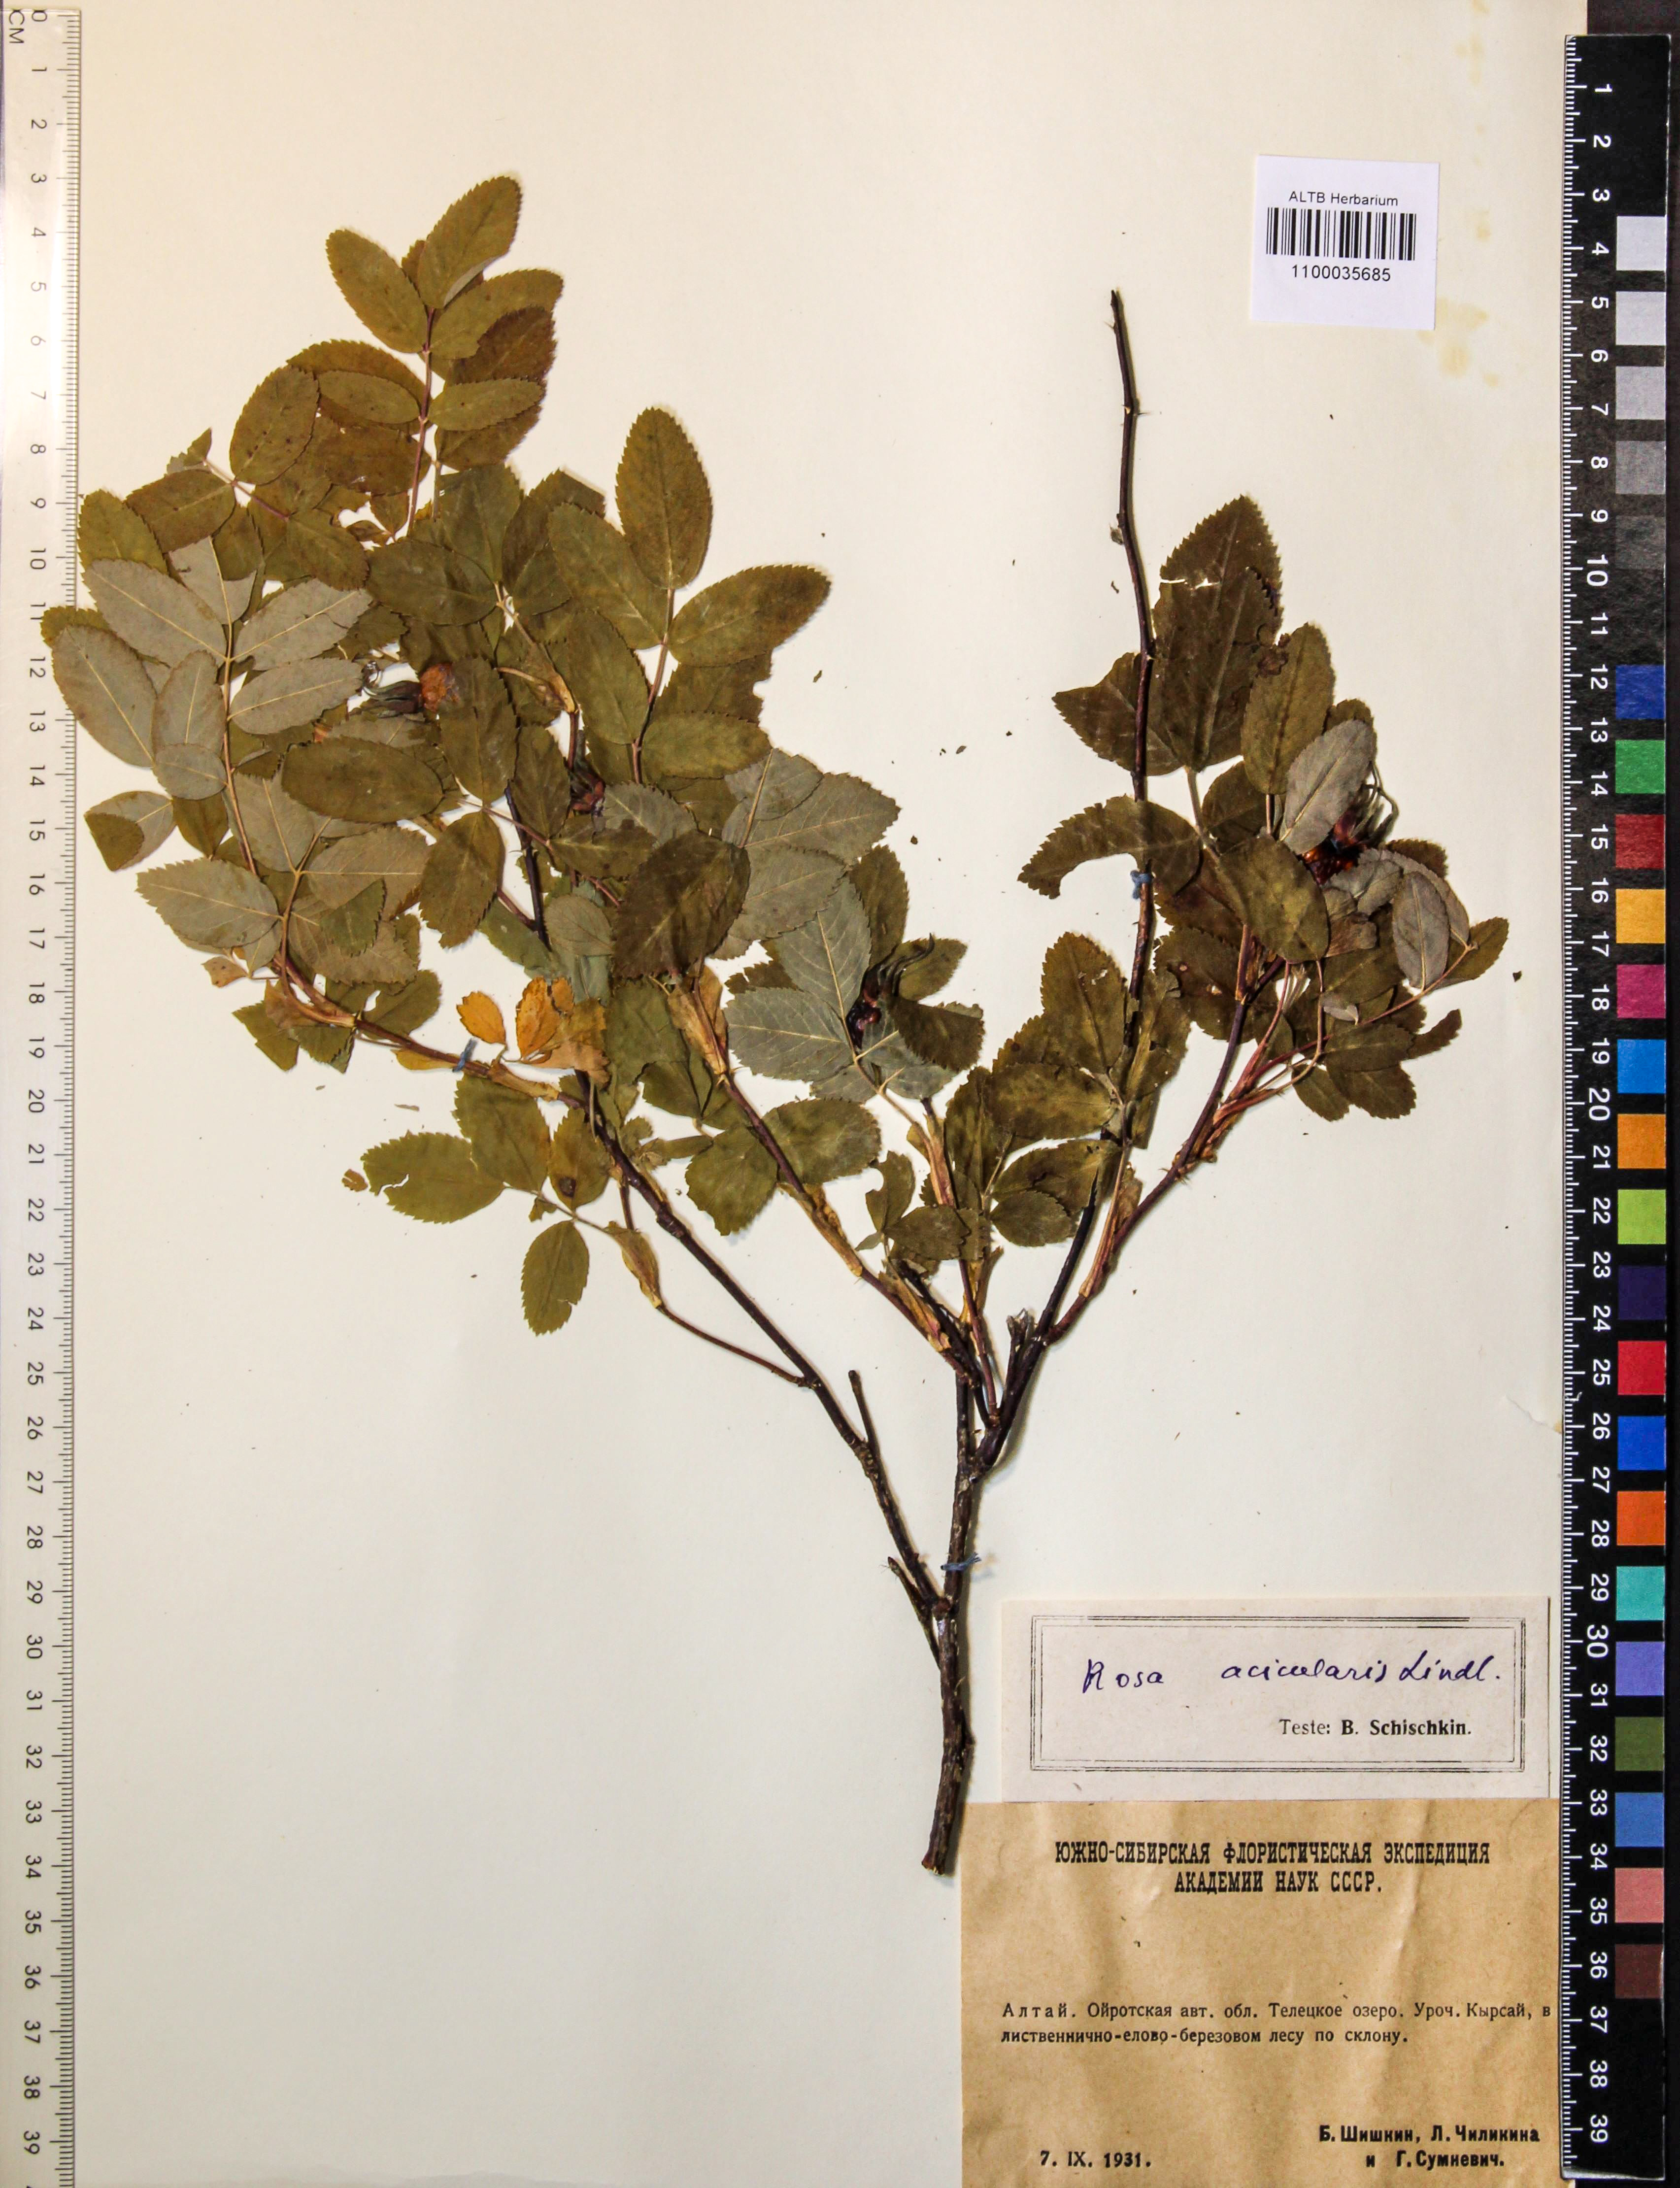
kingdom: Plantae
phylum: Tracheophyta
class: Magnoliopsida
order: Rosales
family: Rosaceae
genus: Rosa
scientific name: Rosa acicularis
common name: Prickly rose
